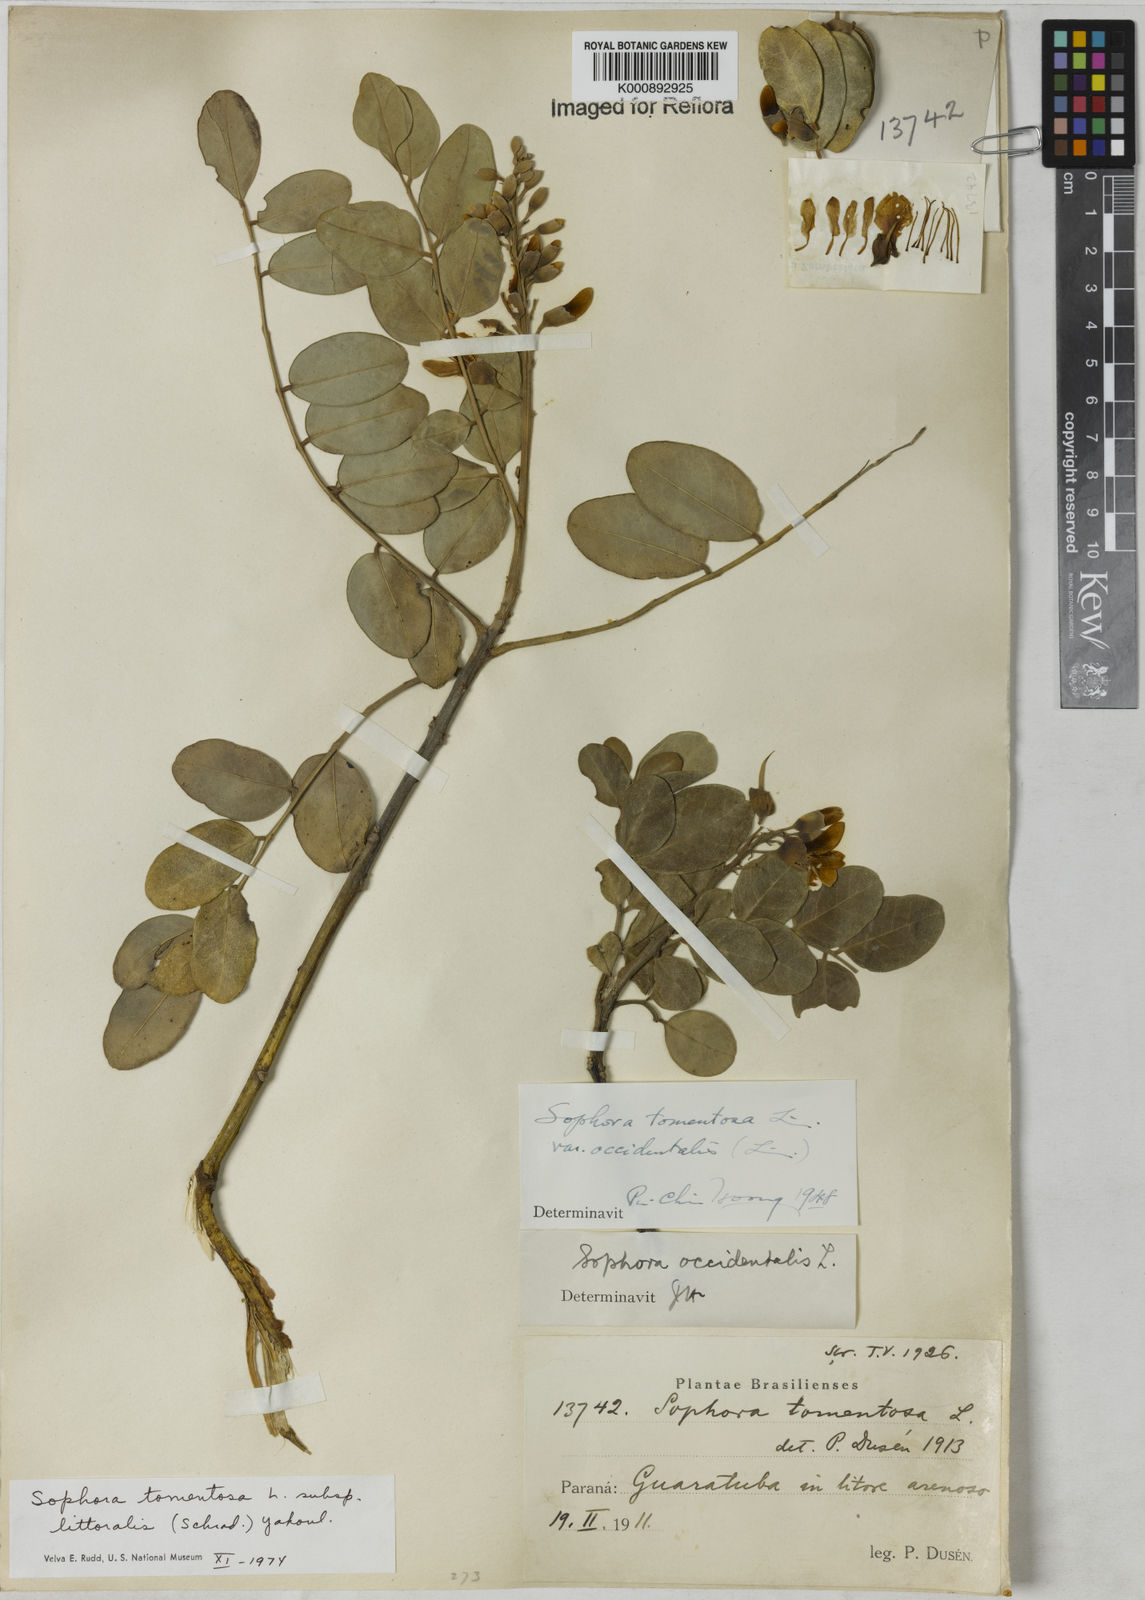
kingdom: Plantae
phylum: Tracheophyta
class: Magnoliopsida
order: Fabales
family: Fabaceae
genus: Sophora
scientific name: Sophora tomentosa
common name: Yellow necklacepod
